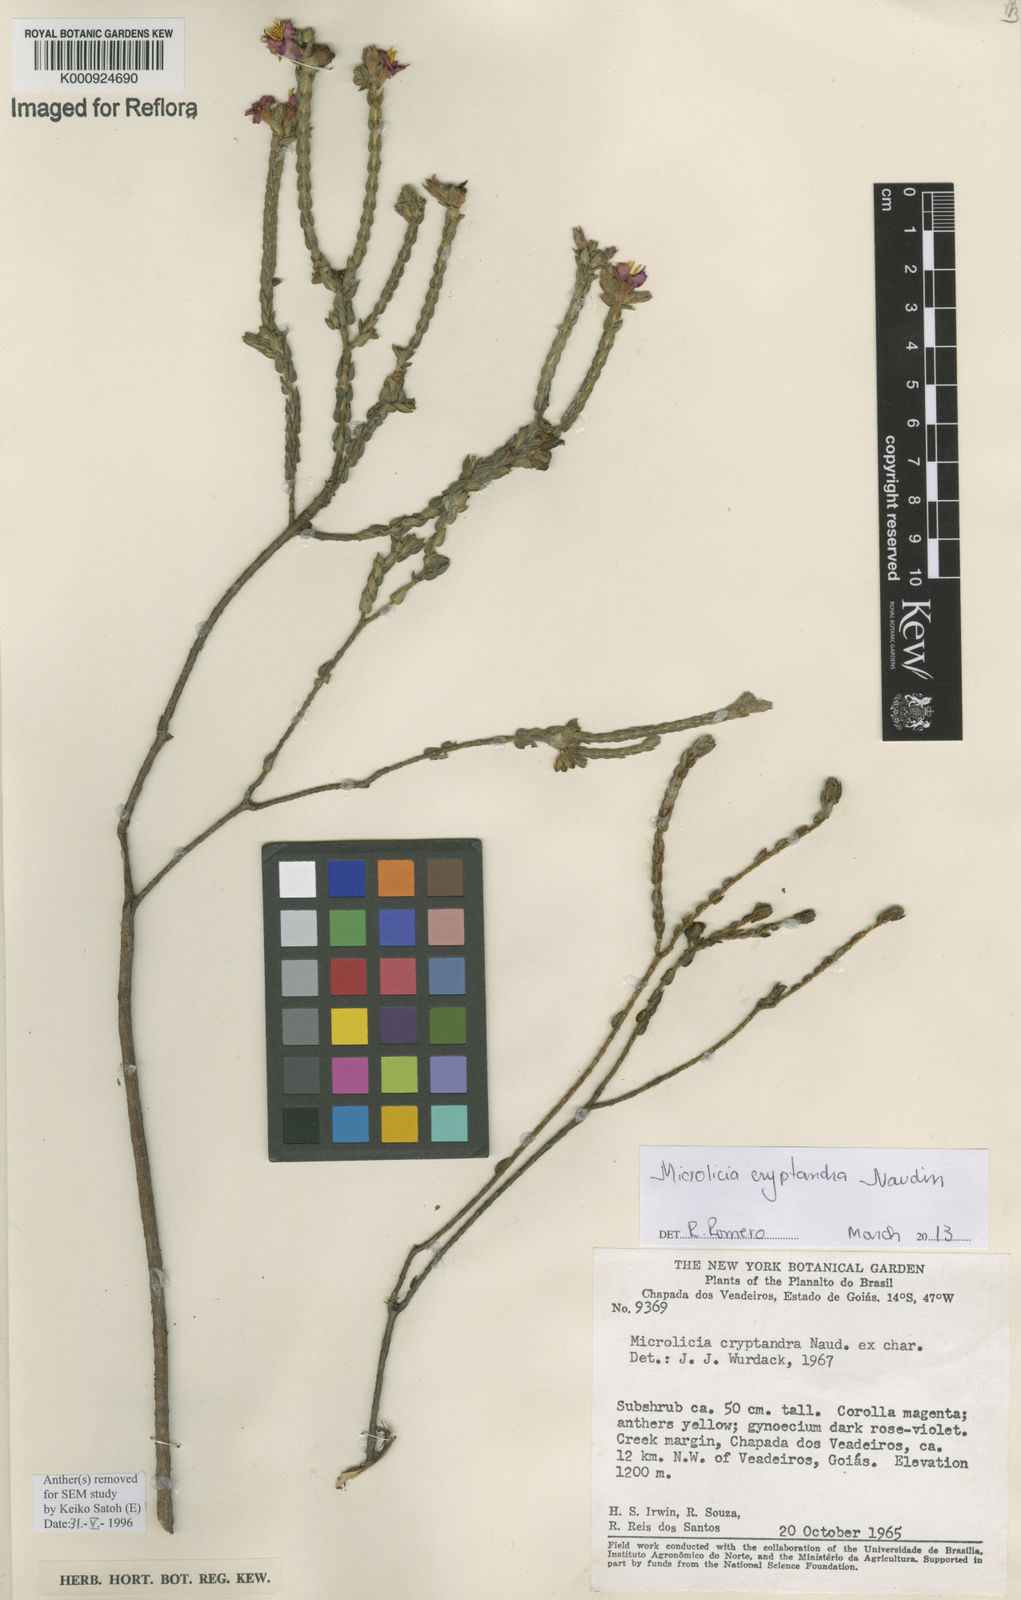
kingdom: Plantae
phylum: Tracheophyta
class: Magnoliopsida
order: Myrtales
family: Melastomataceae
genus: Microlicia
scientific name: Microlicia cryptandra
